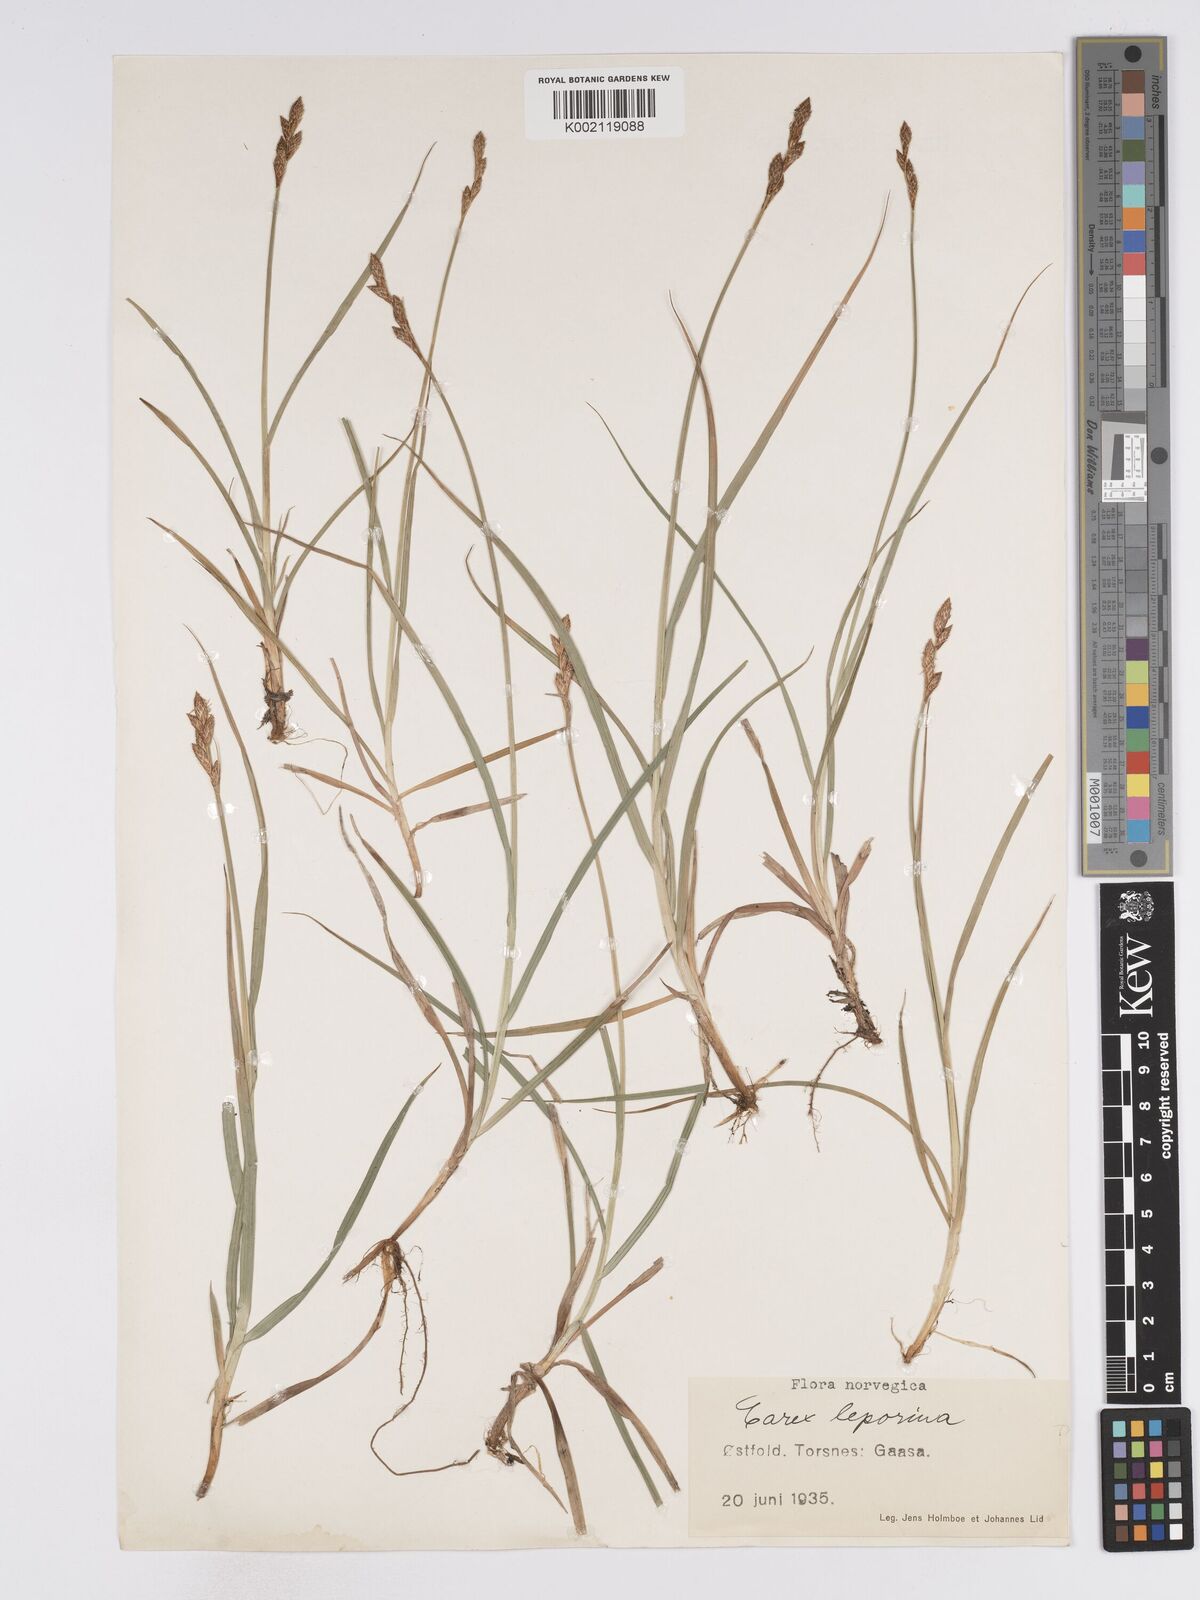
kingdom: Plantae
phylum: Tracheophyta
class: Liliopsida
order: Poales
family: Cyperaceae
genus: Carex
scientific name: Carex leporina
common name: Oval sedge
